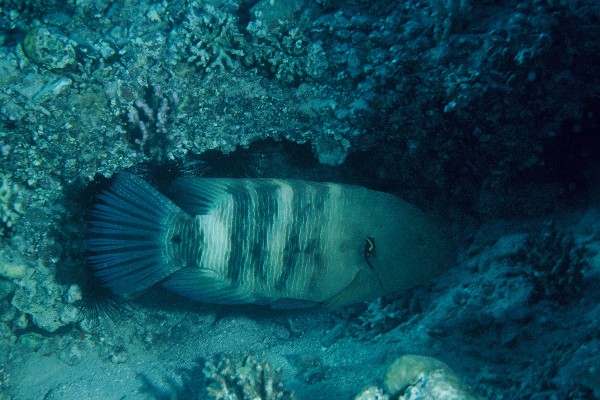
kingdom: Animalia
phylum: Chordata
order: Perciformes
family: Labridae
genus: Cheilinus
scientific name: Cheilinus lunulatus
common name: Broomtail wrasse
